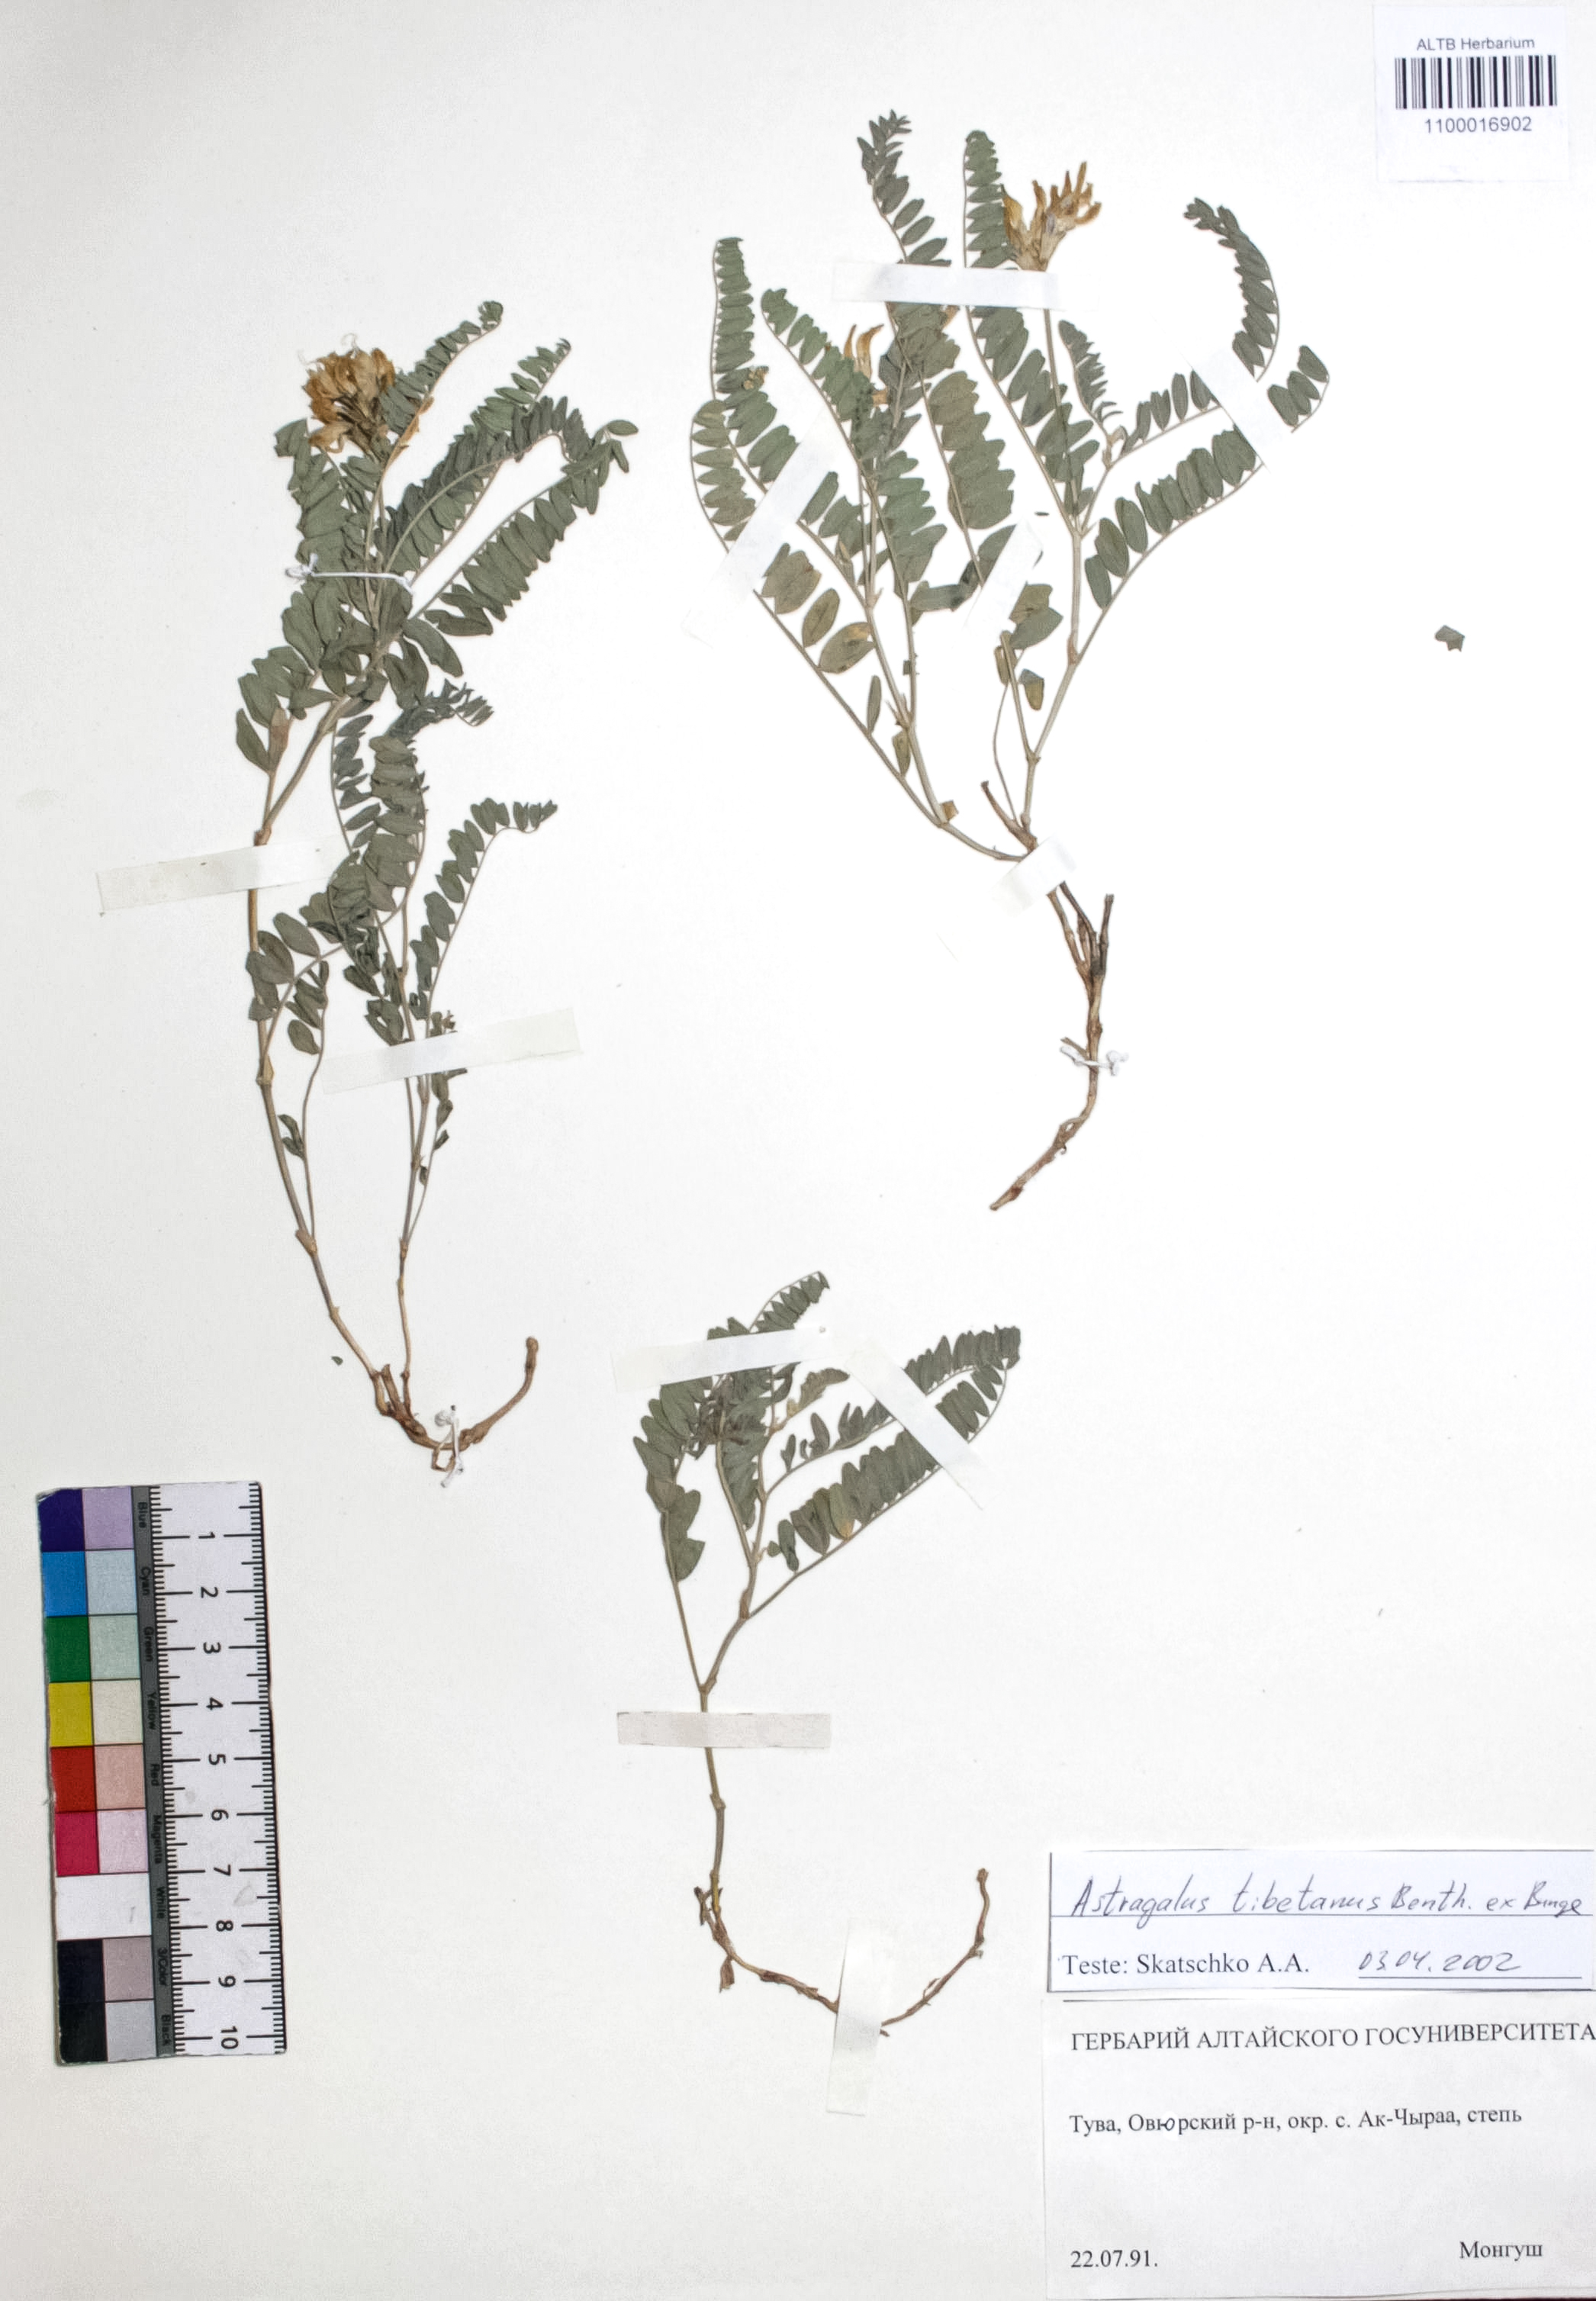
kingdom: Plantae
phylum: Tracheophyta
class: Magnoliopsida
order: Fabales
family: Fabaceae
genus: Astragalus
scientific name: Astragalus tibetanus
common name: Tibet milkvetch
